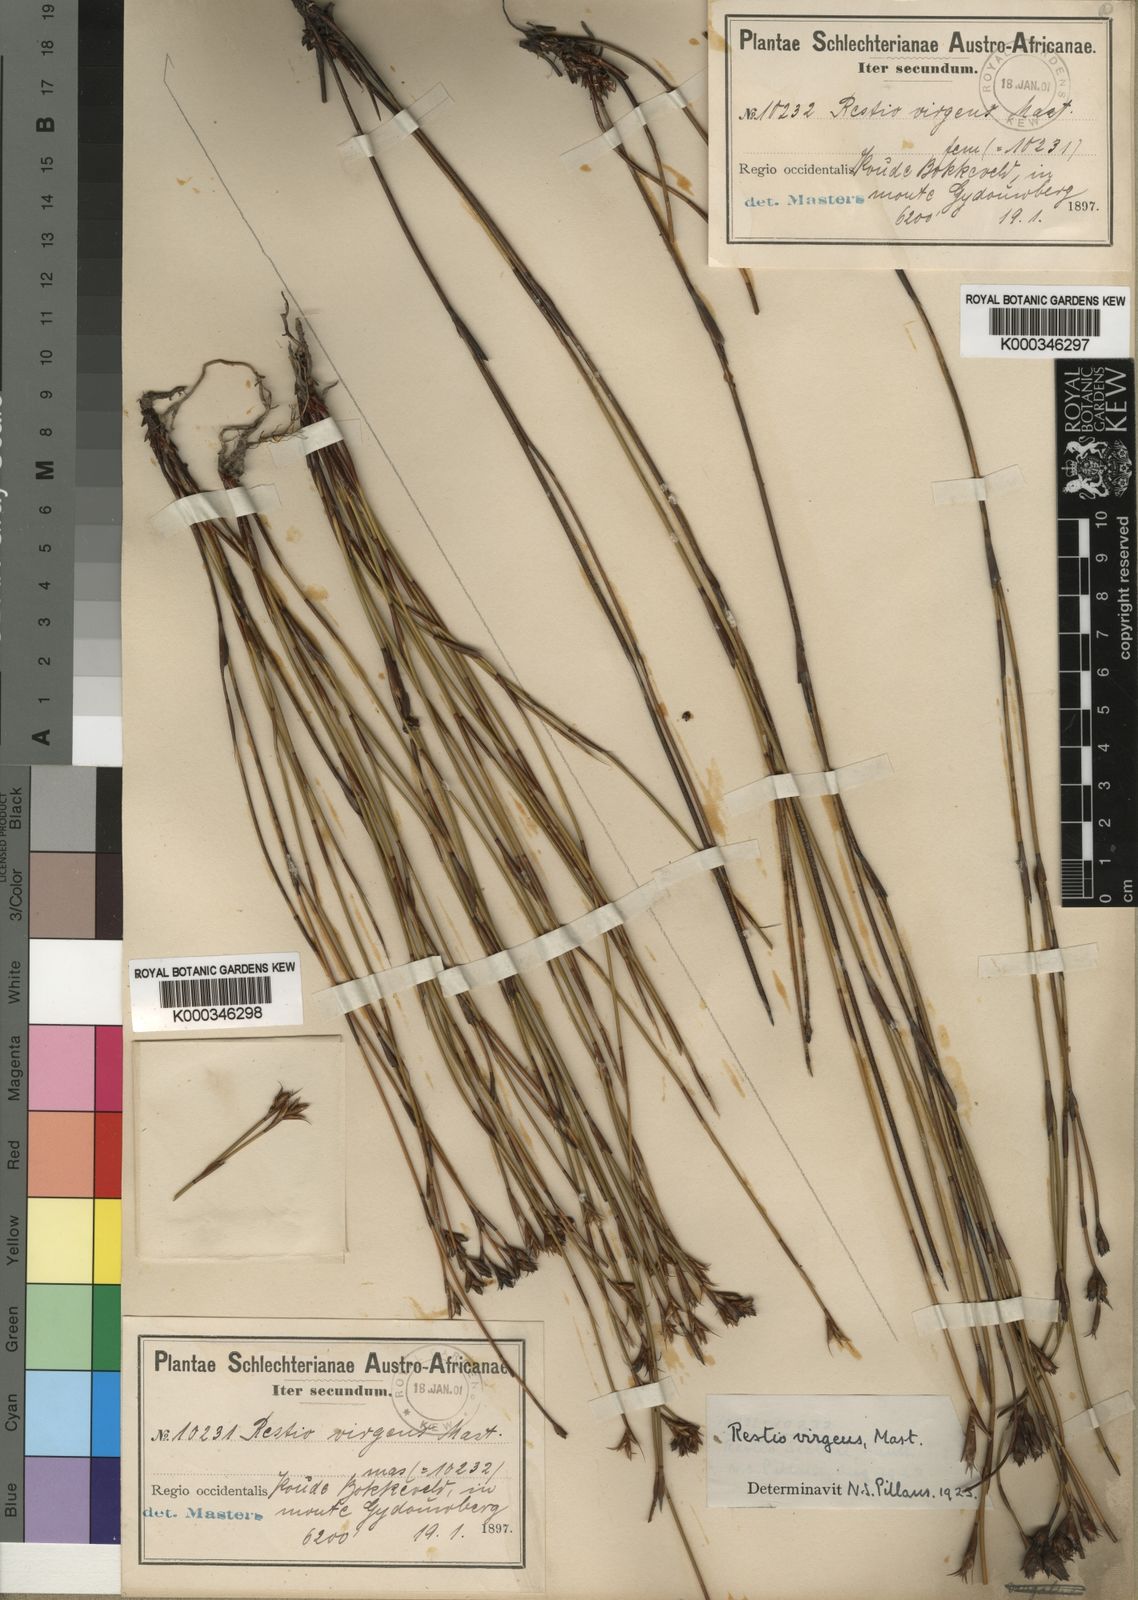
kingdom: Plantae
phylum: Tracheophyta
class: Liliopsida
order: Poales
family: Restionaceae
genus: Restio
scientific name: Restio virgeus
